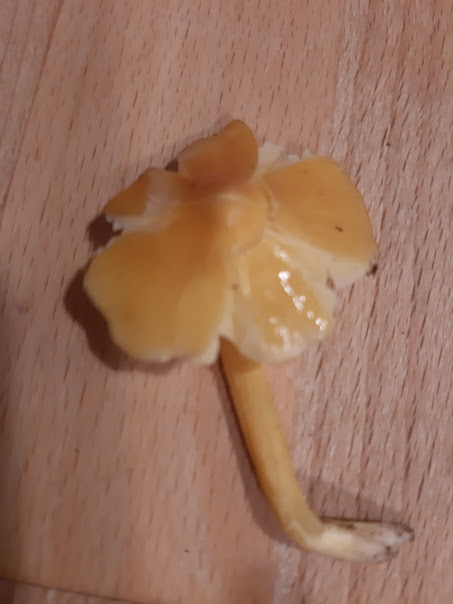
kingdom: Fungi
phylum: Basidiomycota
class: Agaricomycetes
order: Agaricales
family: Hygrophoraceae
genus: Hygrocybe
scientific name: Hygrocybe
